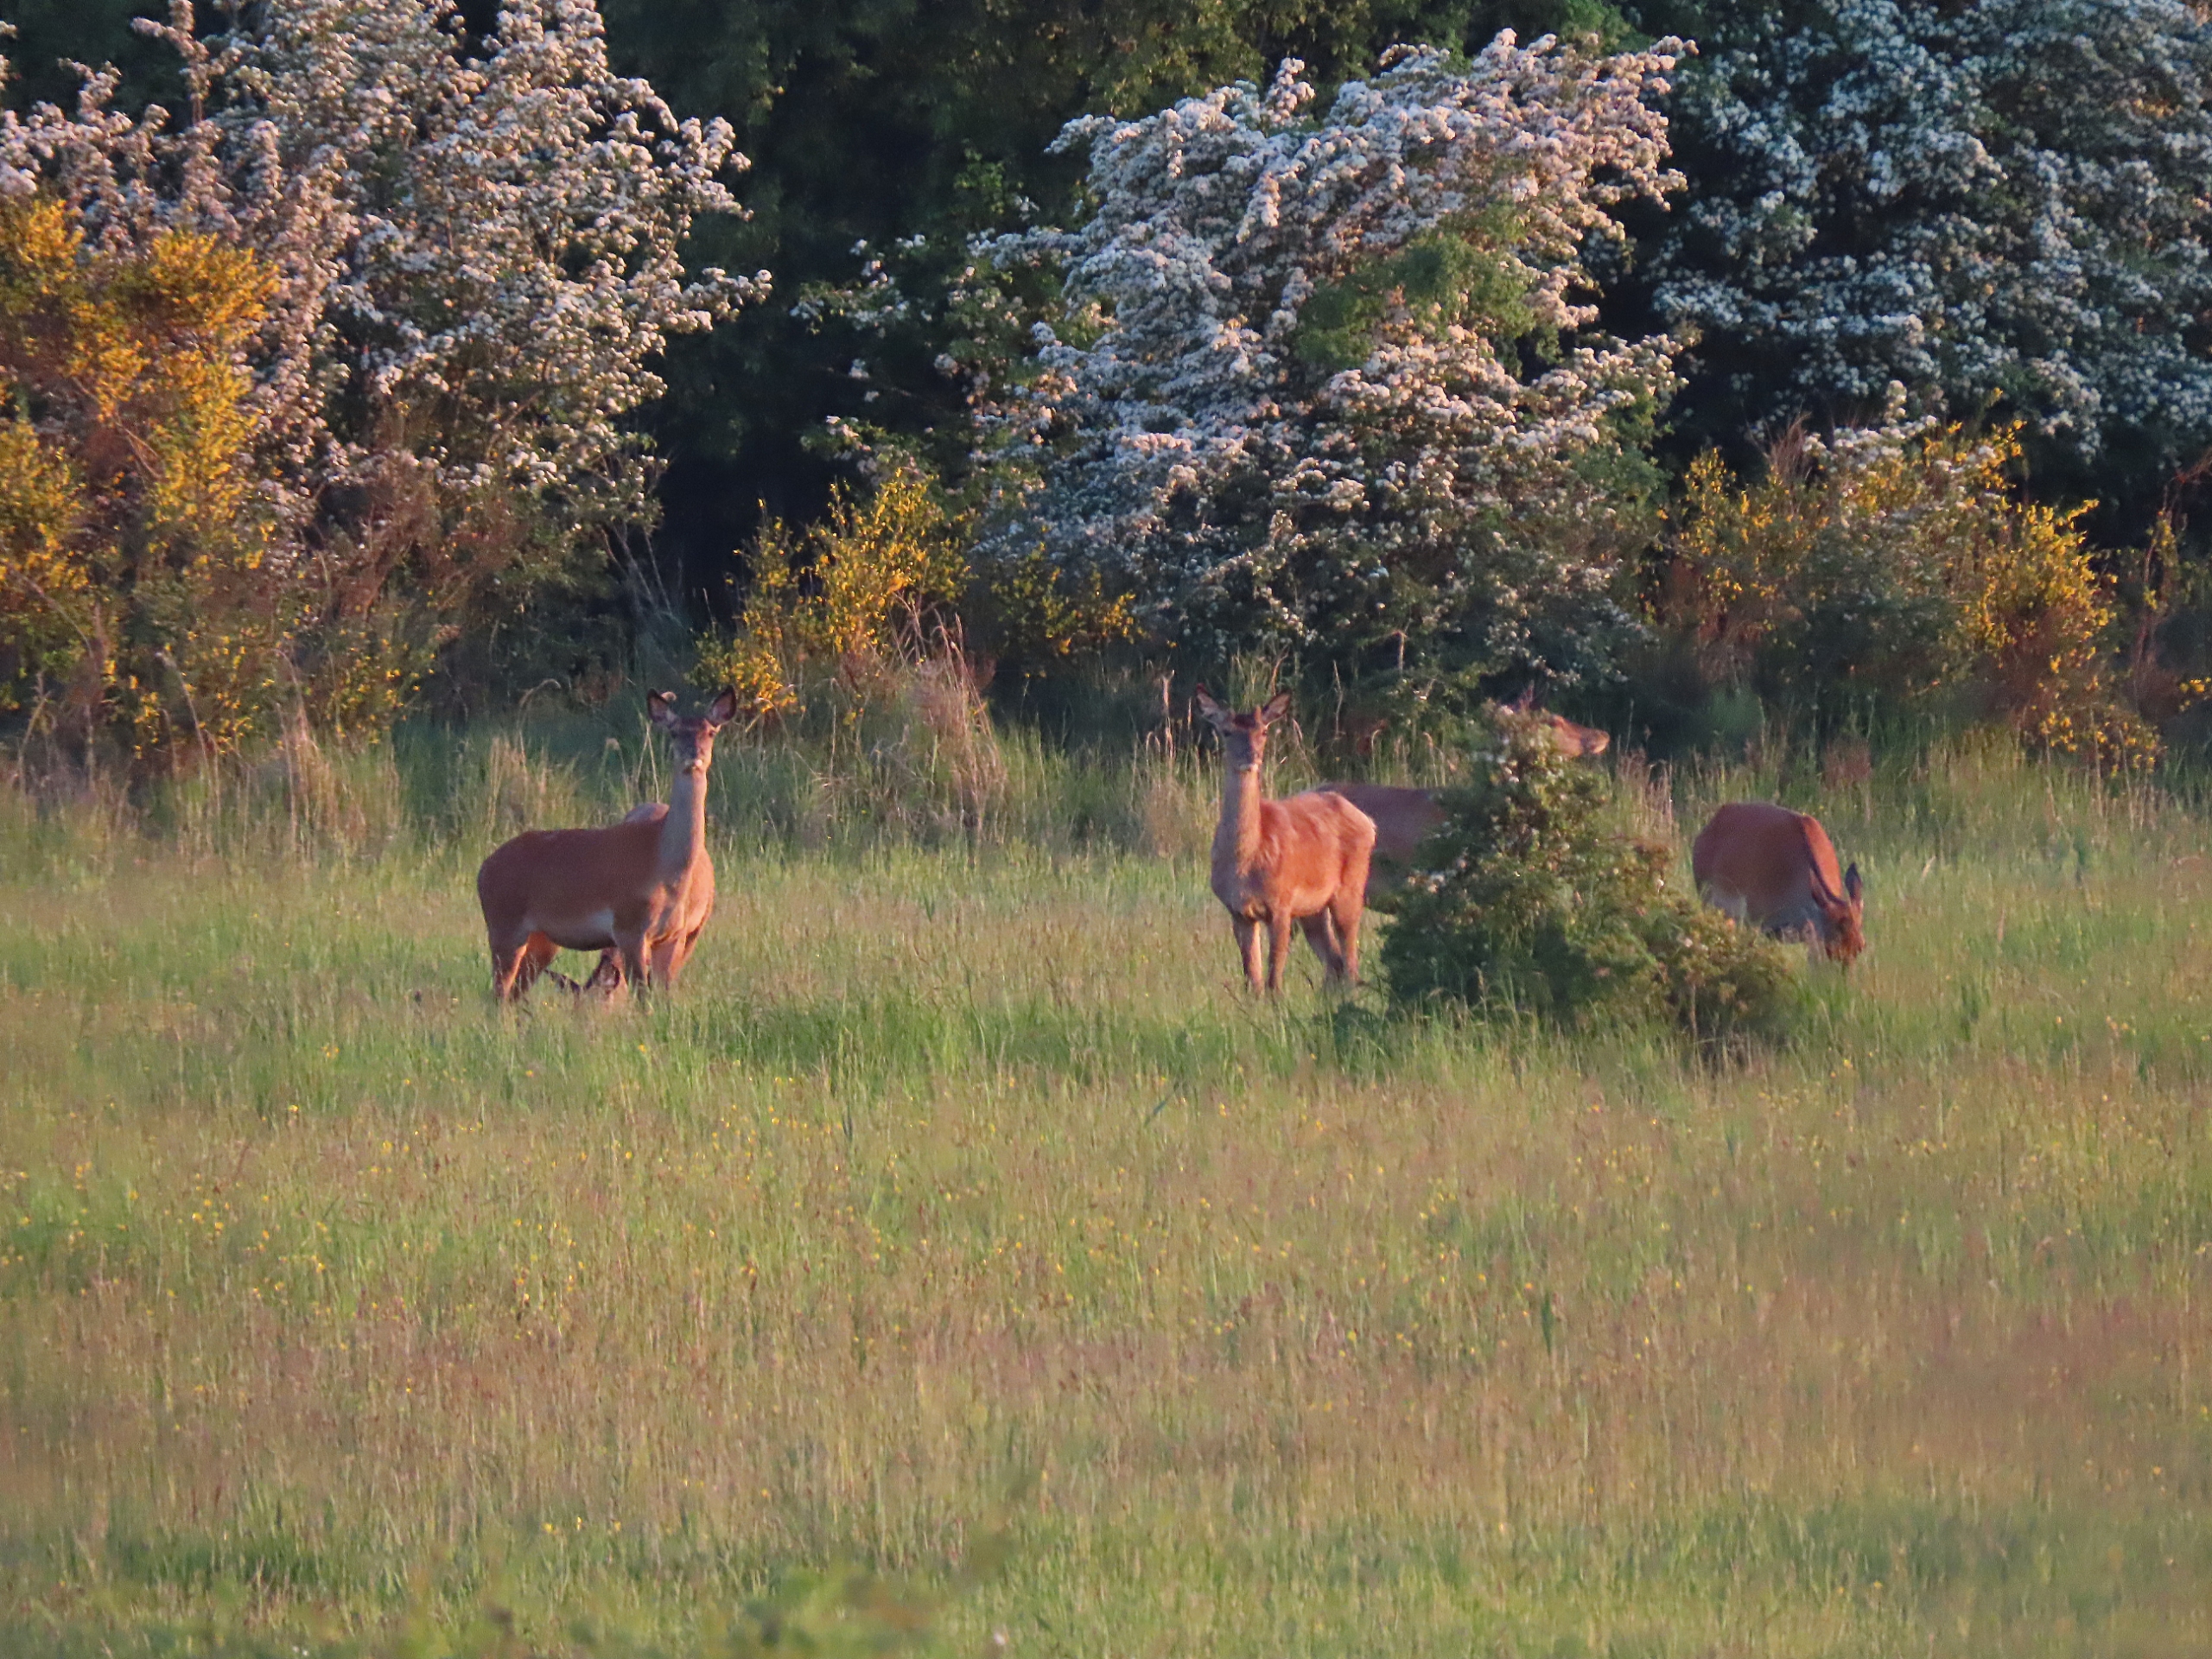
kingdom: Animalia
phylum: Chordata
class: Mammalia
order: Artiodactyla
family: Cervidae
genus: Cervus
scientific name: Cervus elaphus
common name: Krondyr
